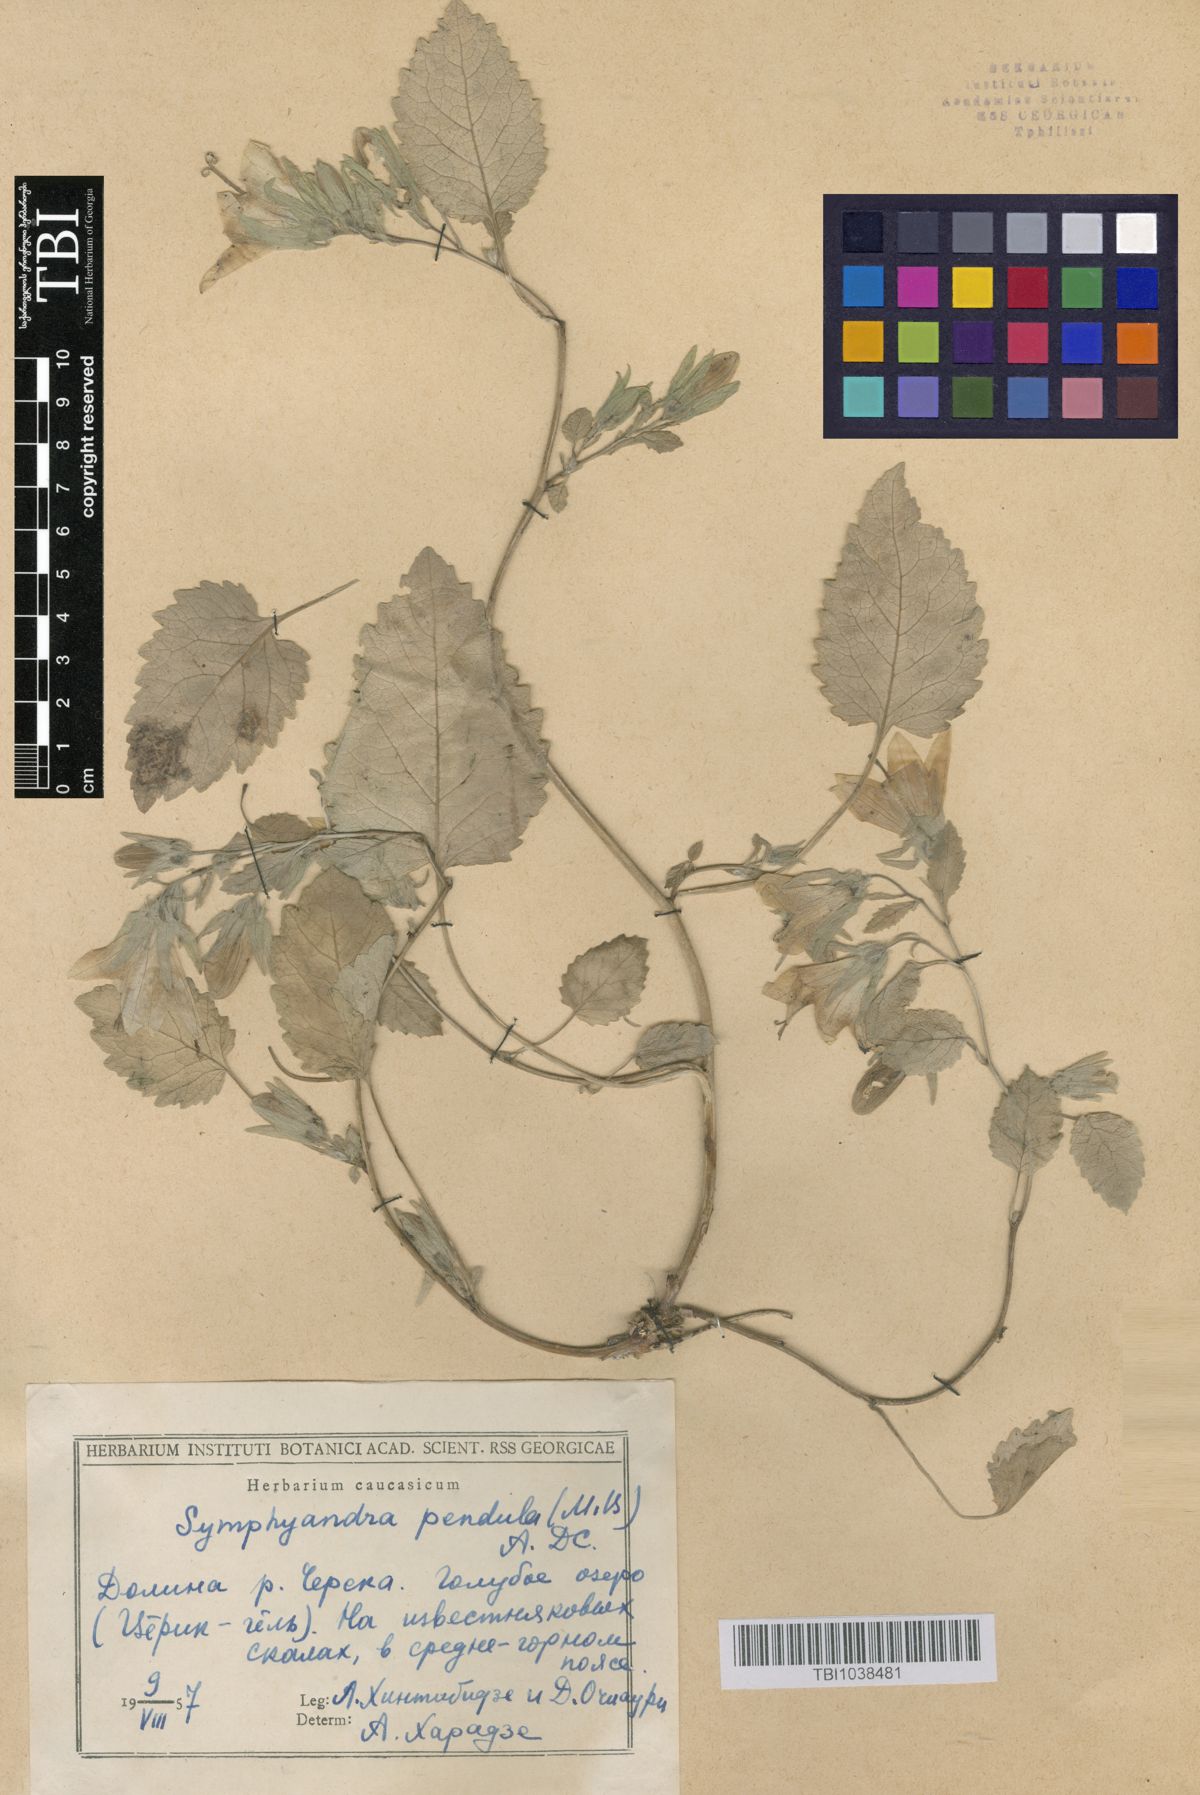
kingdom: Plantae
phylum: Tracheophyta
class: Magnoliopsida
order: Asterales
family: Campanulaceae
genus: Campanula
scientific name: Campanula pendula
